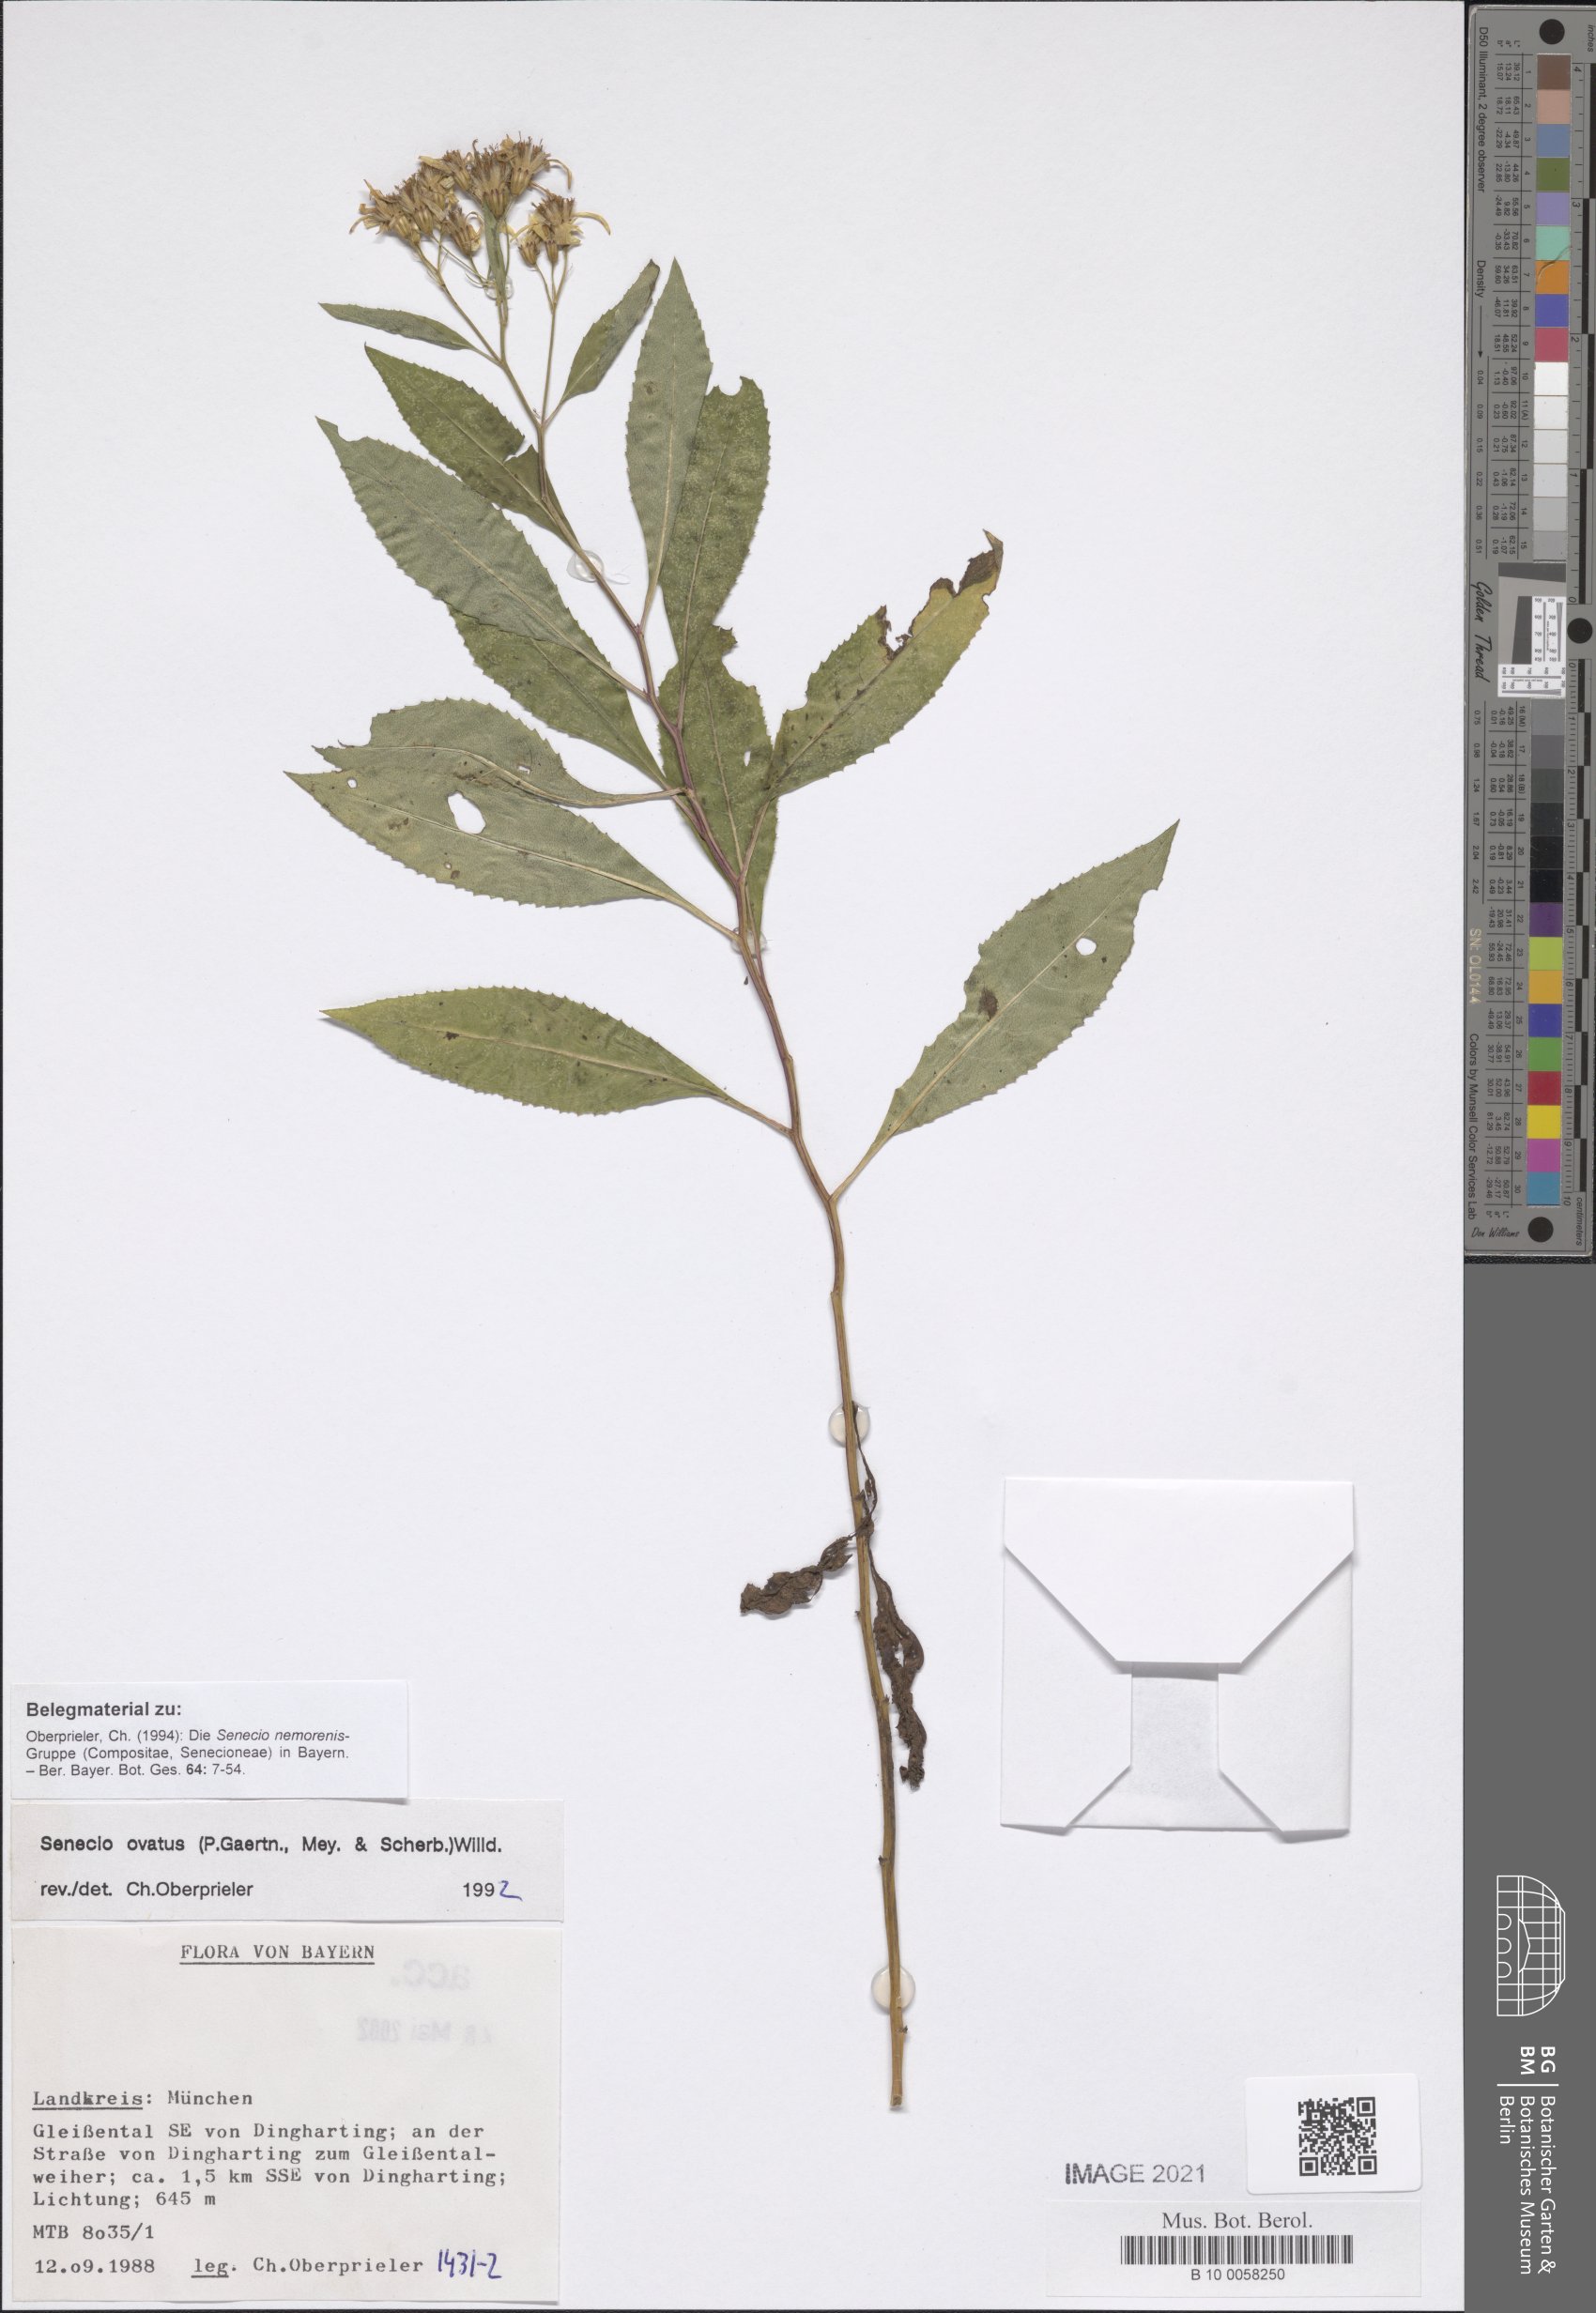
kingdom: Plantae
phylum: Tracheophyta
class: Magnoliopsida
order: Asterales
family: Asteraceae
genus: Senecio
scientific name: Senecio ovatus
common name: Wood ragwort
